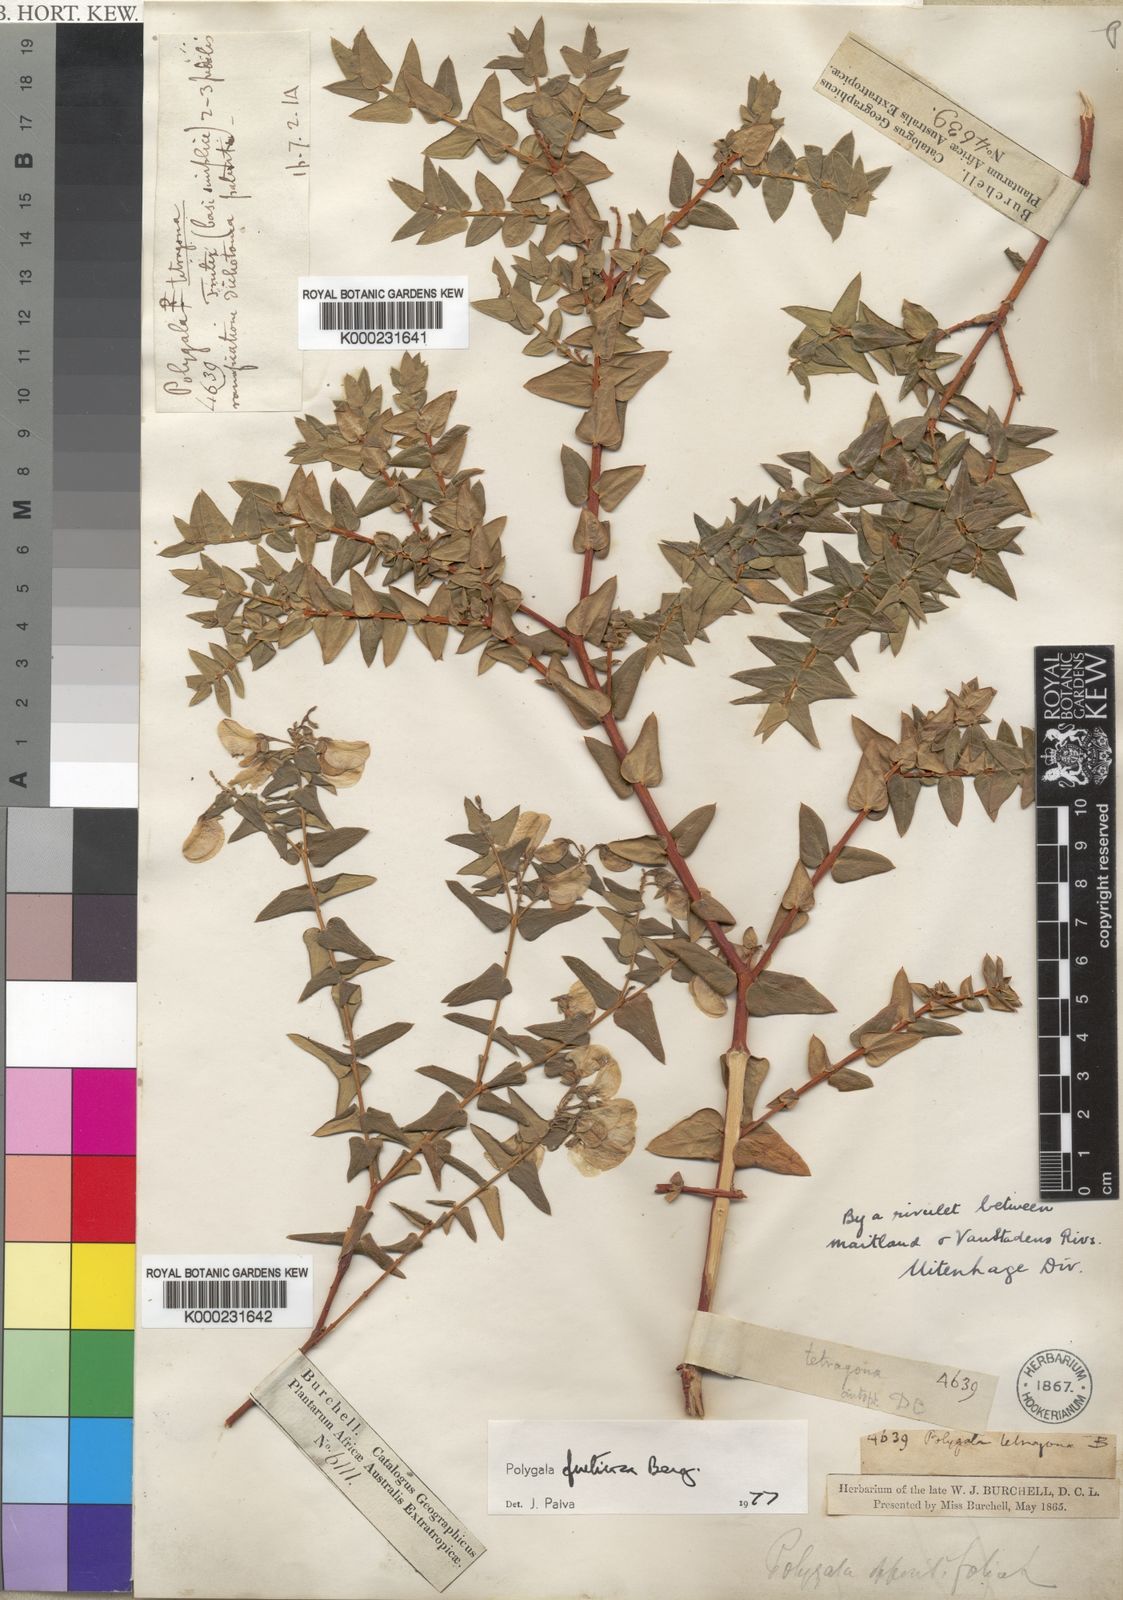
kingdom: Plantae
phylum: Tracheophyta
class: Magnoliopsida
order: Fabales
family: Polygalaceae
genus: Polygala
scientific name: Polygala fruticosa
